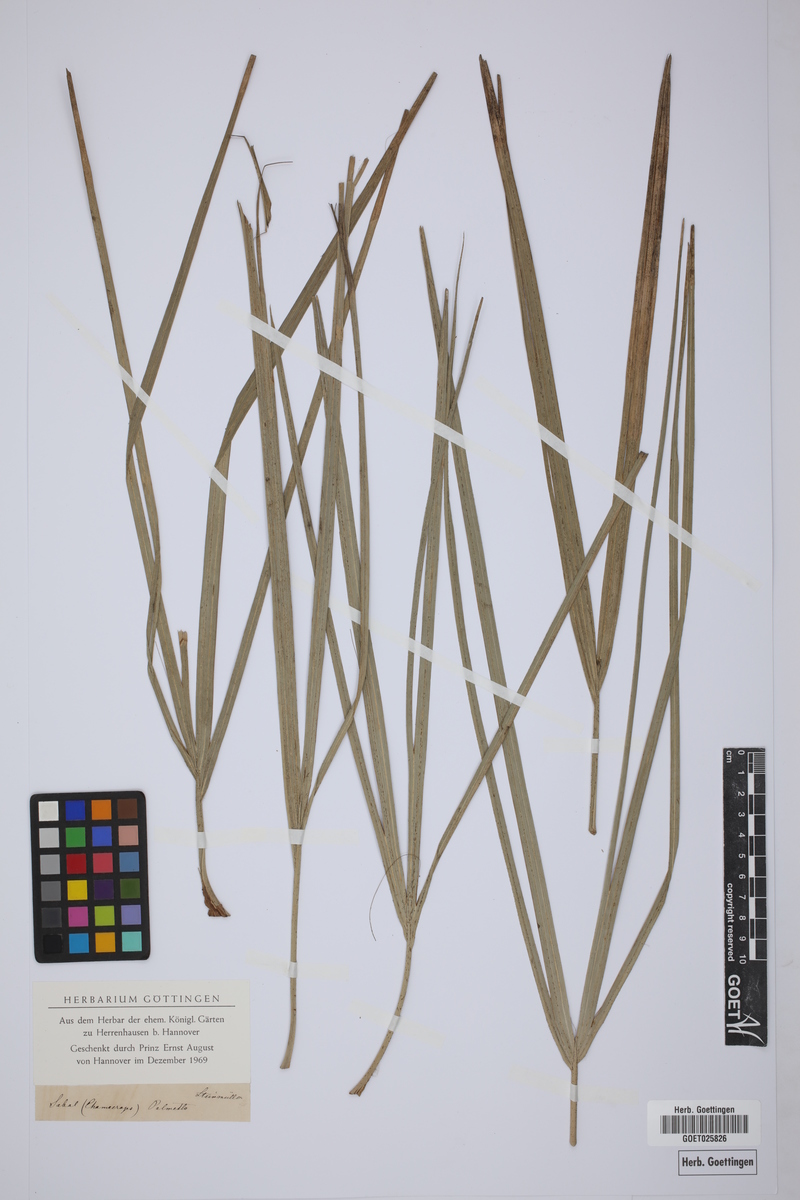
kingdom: Plantae
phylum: Tracheophyta
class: Liliopsida
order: Arecales
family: Arecaceae
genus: Sabal
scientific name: Sabal palmetto
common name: Blue palmetto
